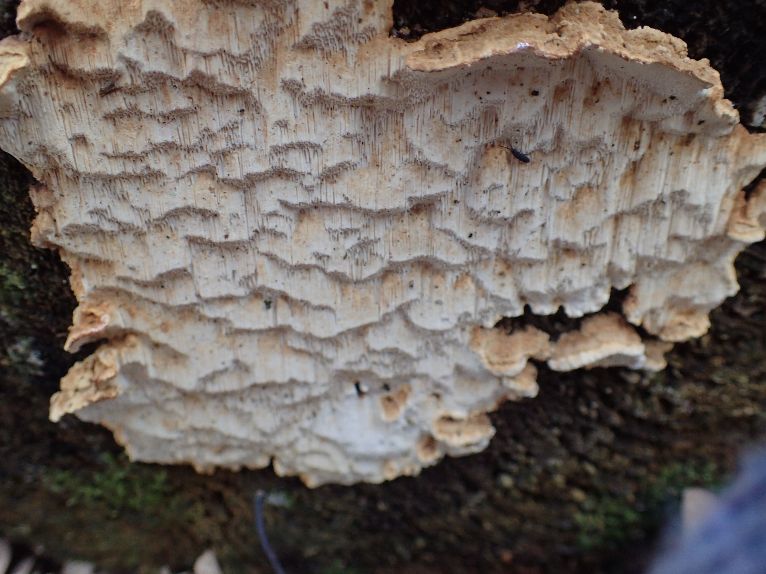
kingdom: Fungi
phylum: Basidiomycota
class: Agaricomycetes
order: Polyporales
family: Fomitopsidaceae
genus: Neoantrodia
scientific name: Neoantrodia serialis
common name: række-sejporesvamp
